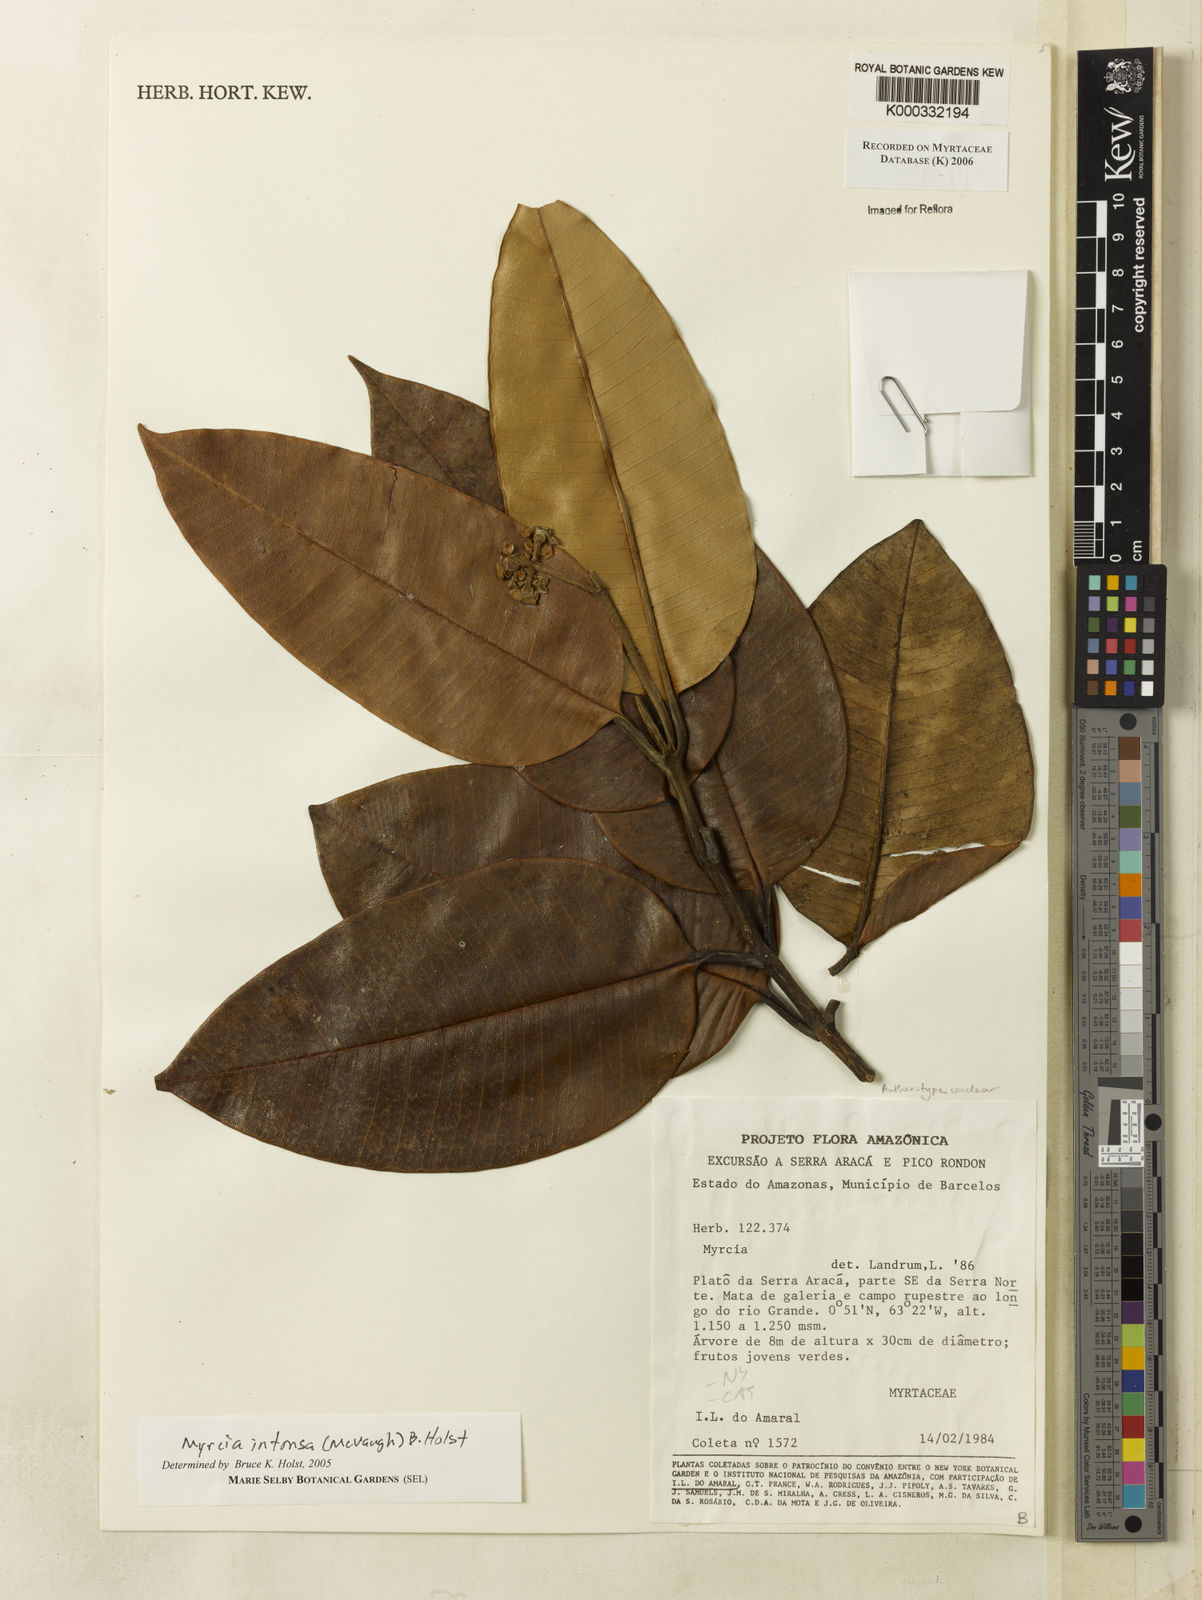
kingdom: Plantae
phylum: Tracheophyta
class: Magnoliopsida
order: Myrtales
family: Myrtaceae
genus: Myrcia
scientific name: Myrcia intonsa
